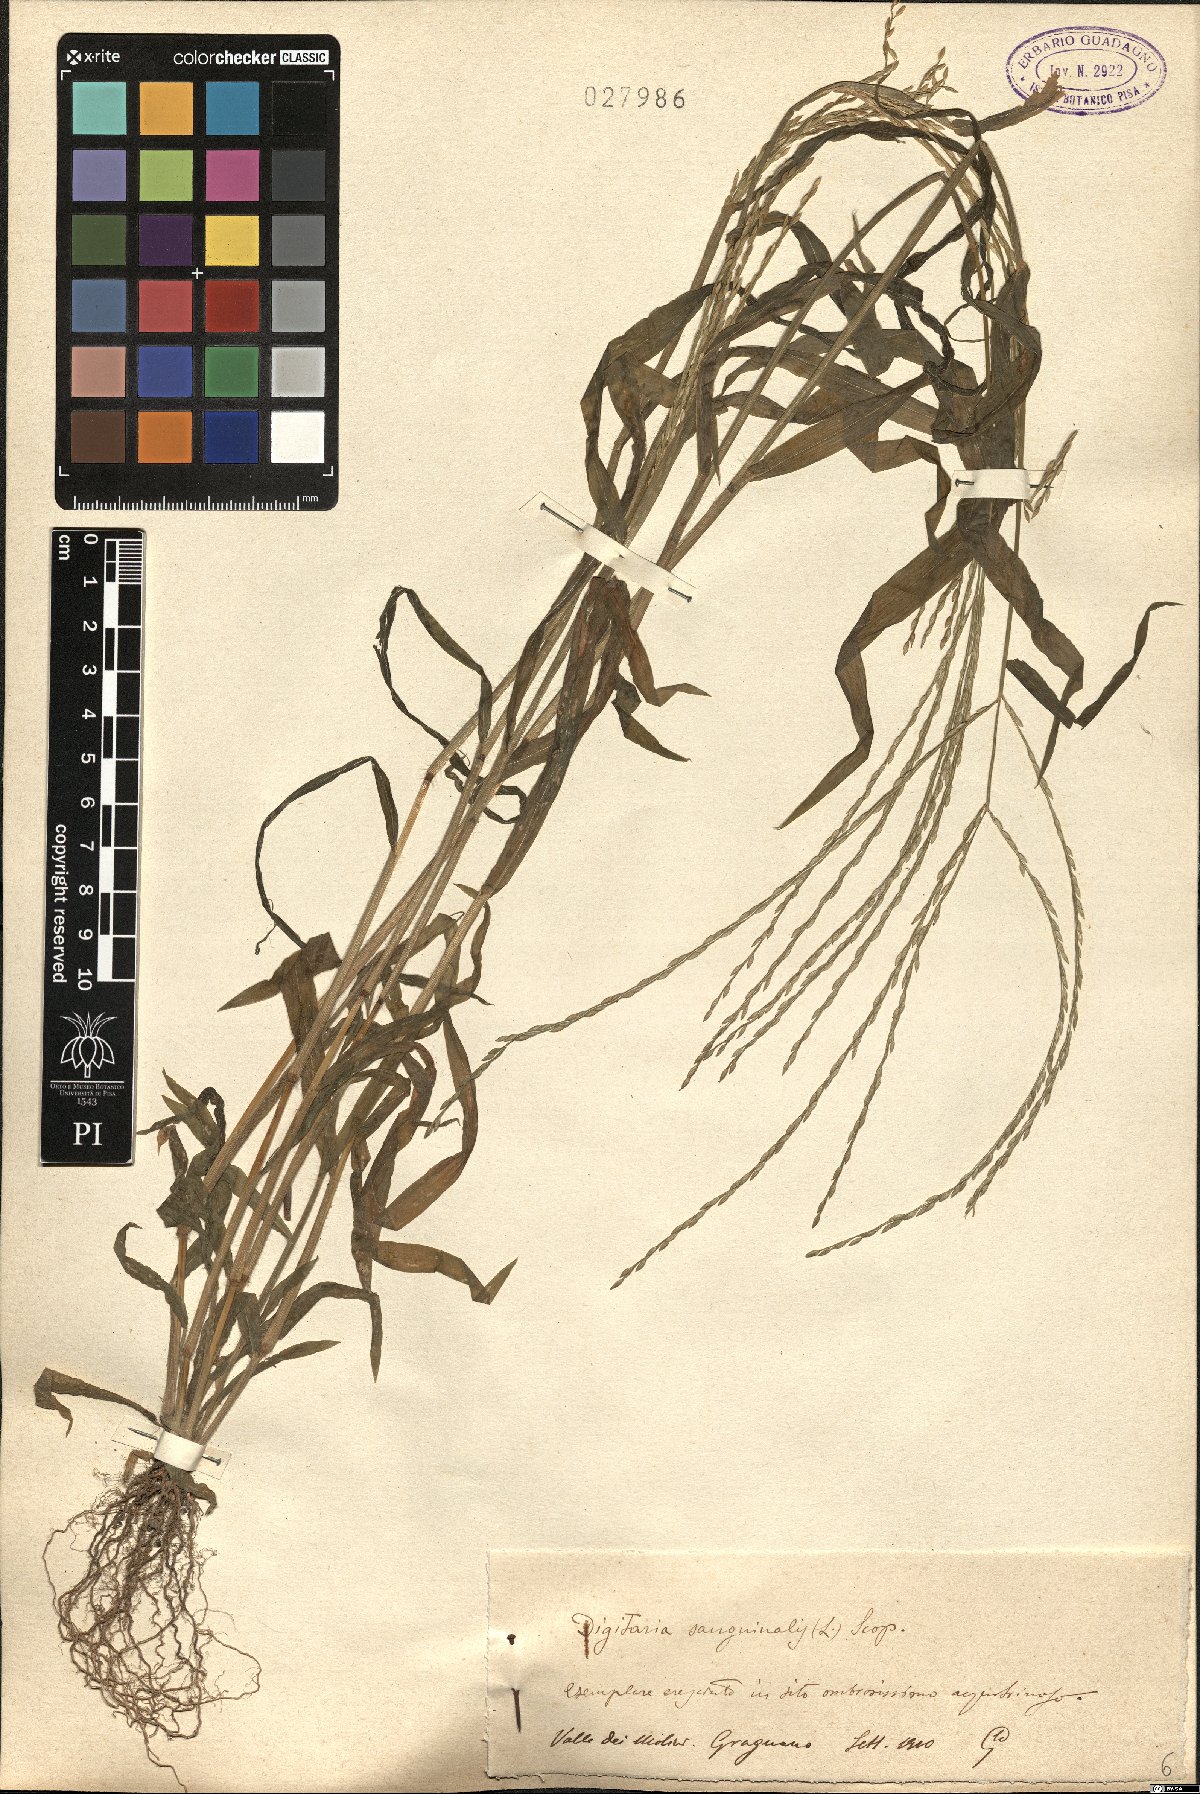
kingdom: Plantae
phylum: Tracheophyta
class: Liliopsida
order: Poales
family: Poaceae
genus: Digitaria
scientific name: Digitaria sanguinalis
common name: Hairy crabgrass
